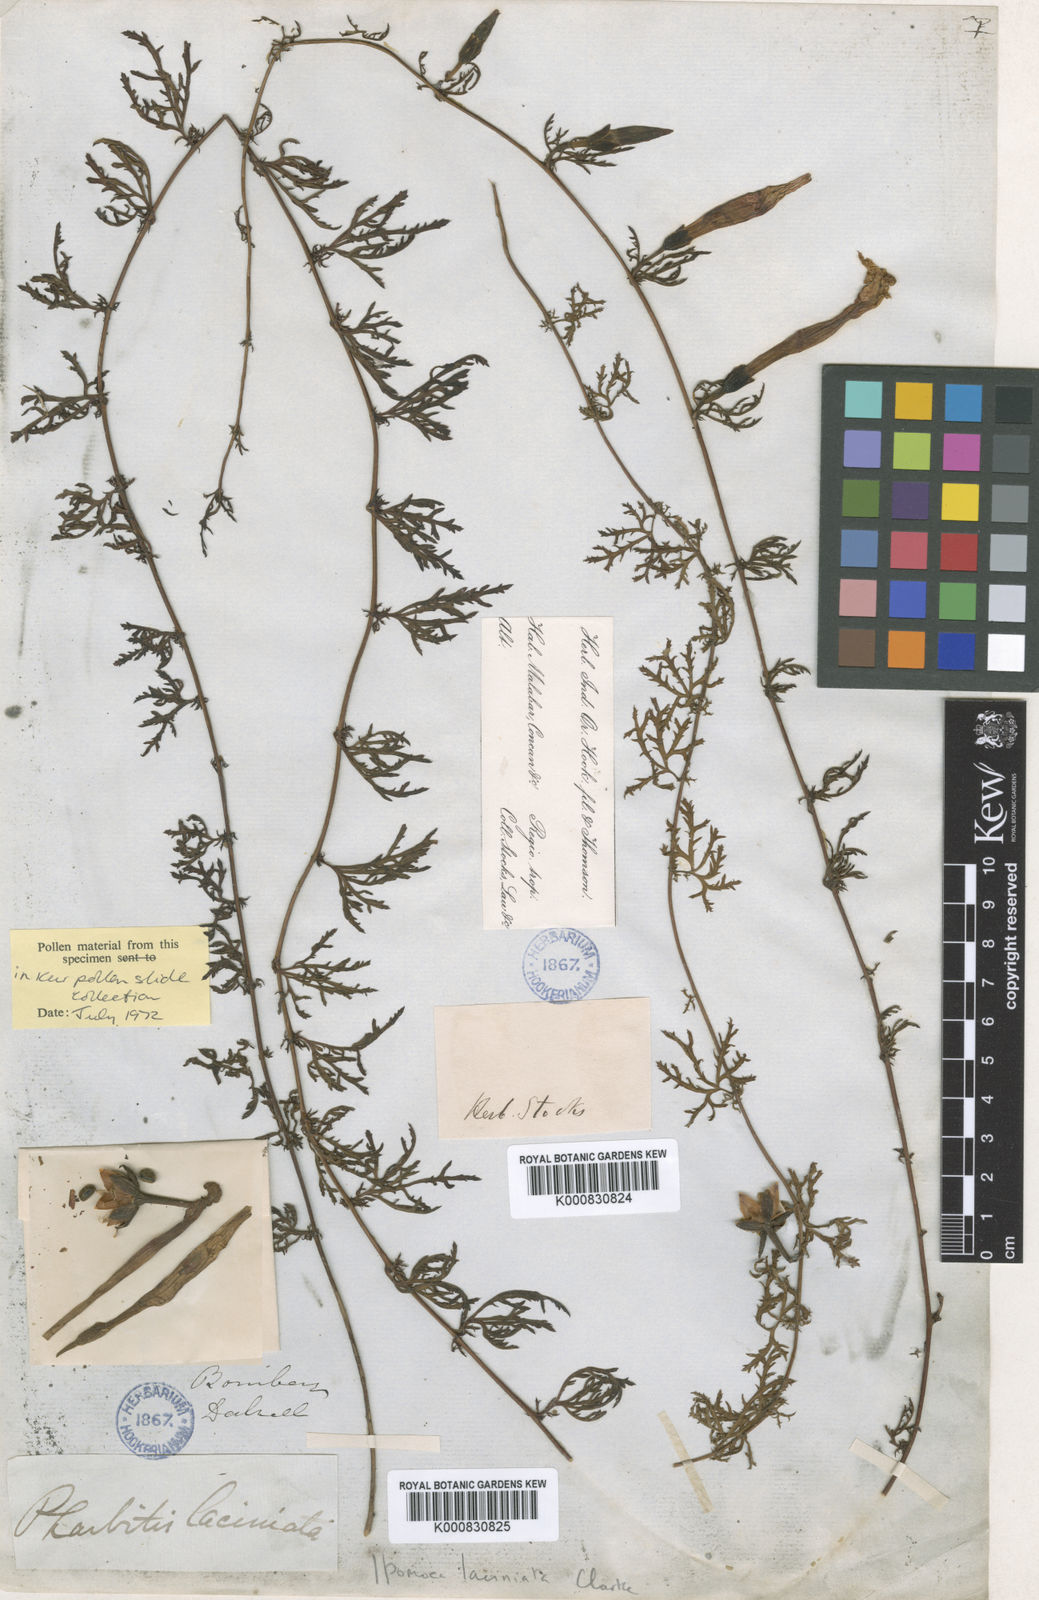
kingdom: Plantae
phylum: Tracheophyta
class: Magnoliopsida
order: Solanales
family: Convolvulaceae
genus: Ipomoea
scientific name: Ipomoea diversifolia
